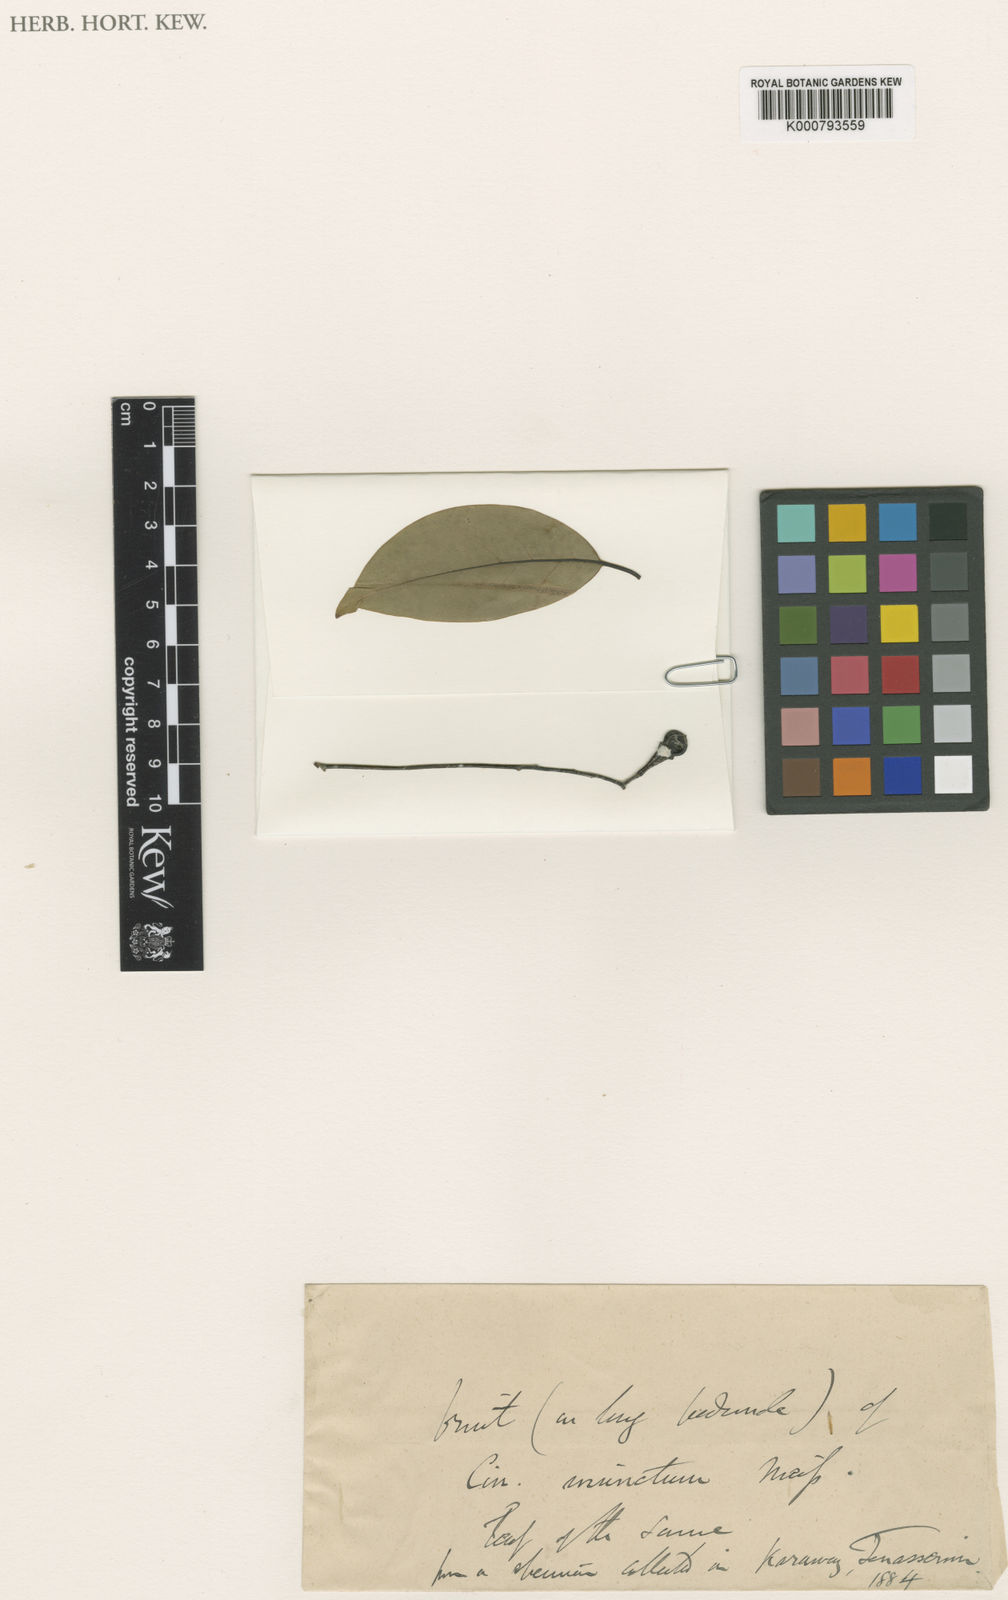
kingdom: Plantae
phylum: Tracheophyta
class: Magnoliopsida
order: Laurales
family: Lauraceae
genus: Cinnamomum
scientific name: Cinnamomum
